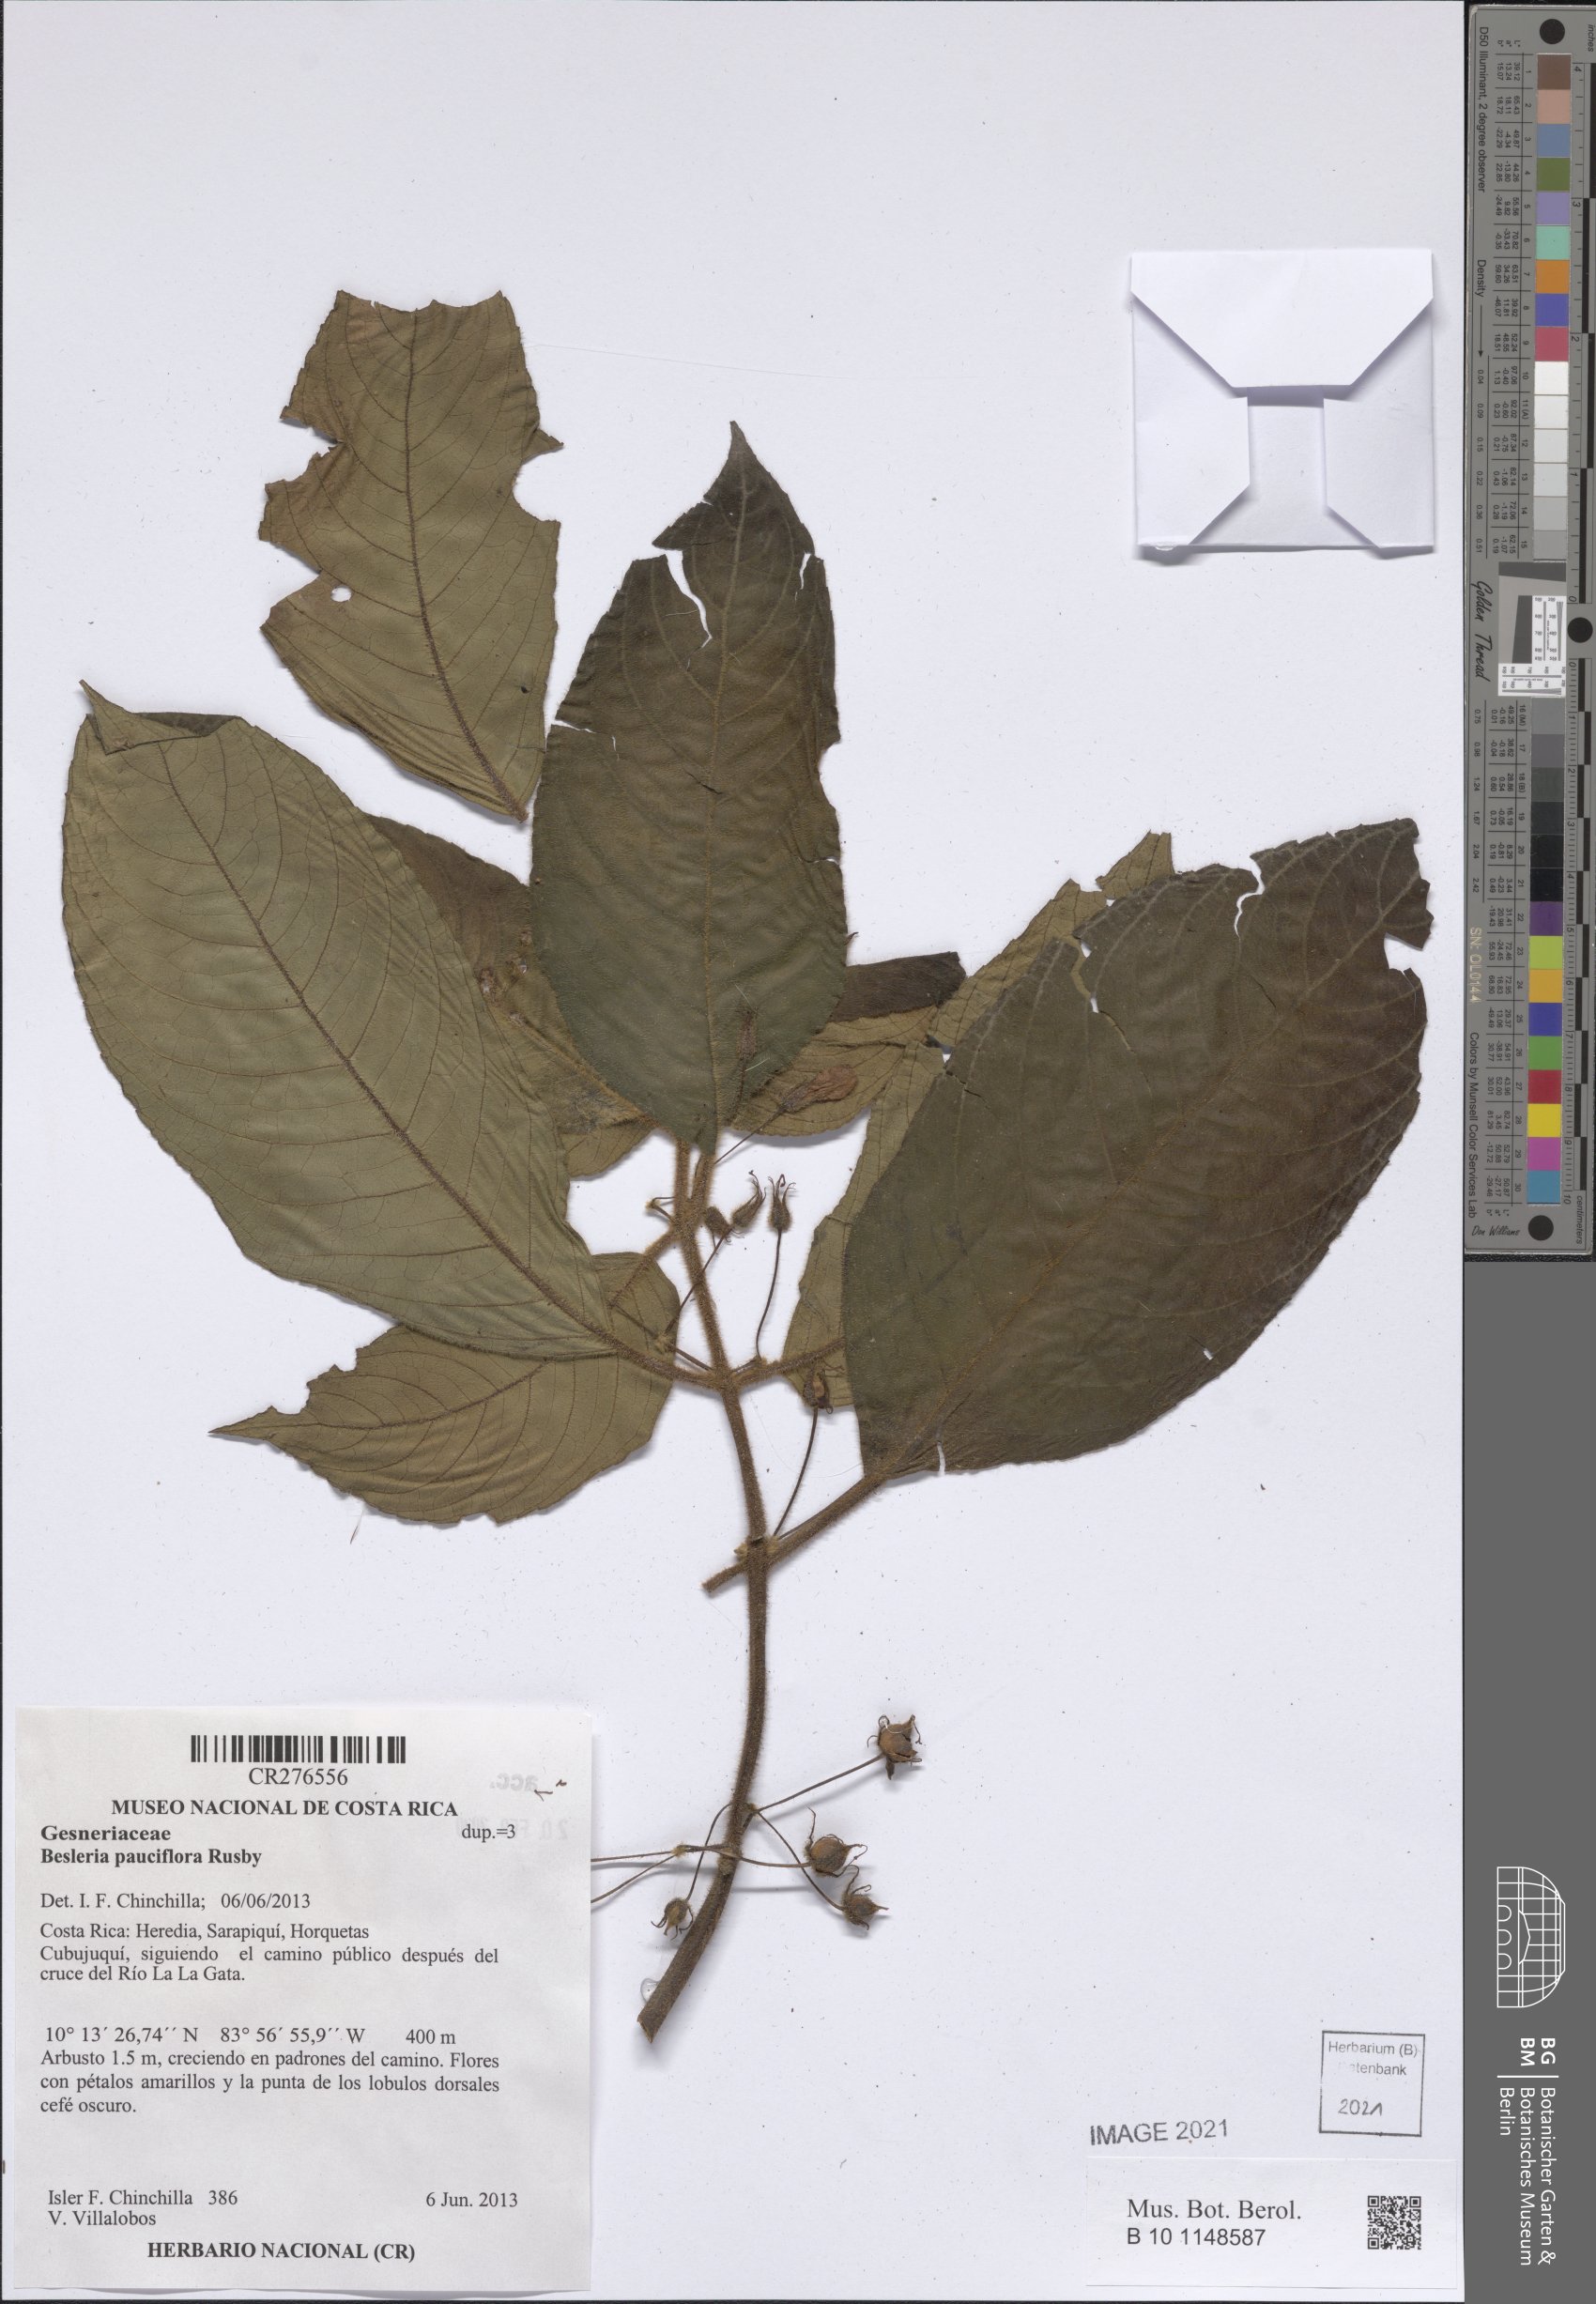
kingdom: Plantae
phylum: Tracheophyta
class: Magnoliopsida
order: Lamiales
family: Gesneriaceae
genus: Besleria
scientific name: Besleria pauciflora
